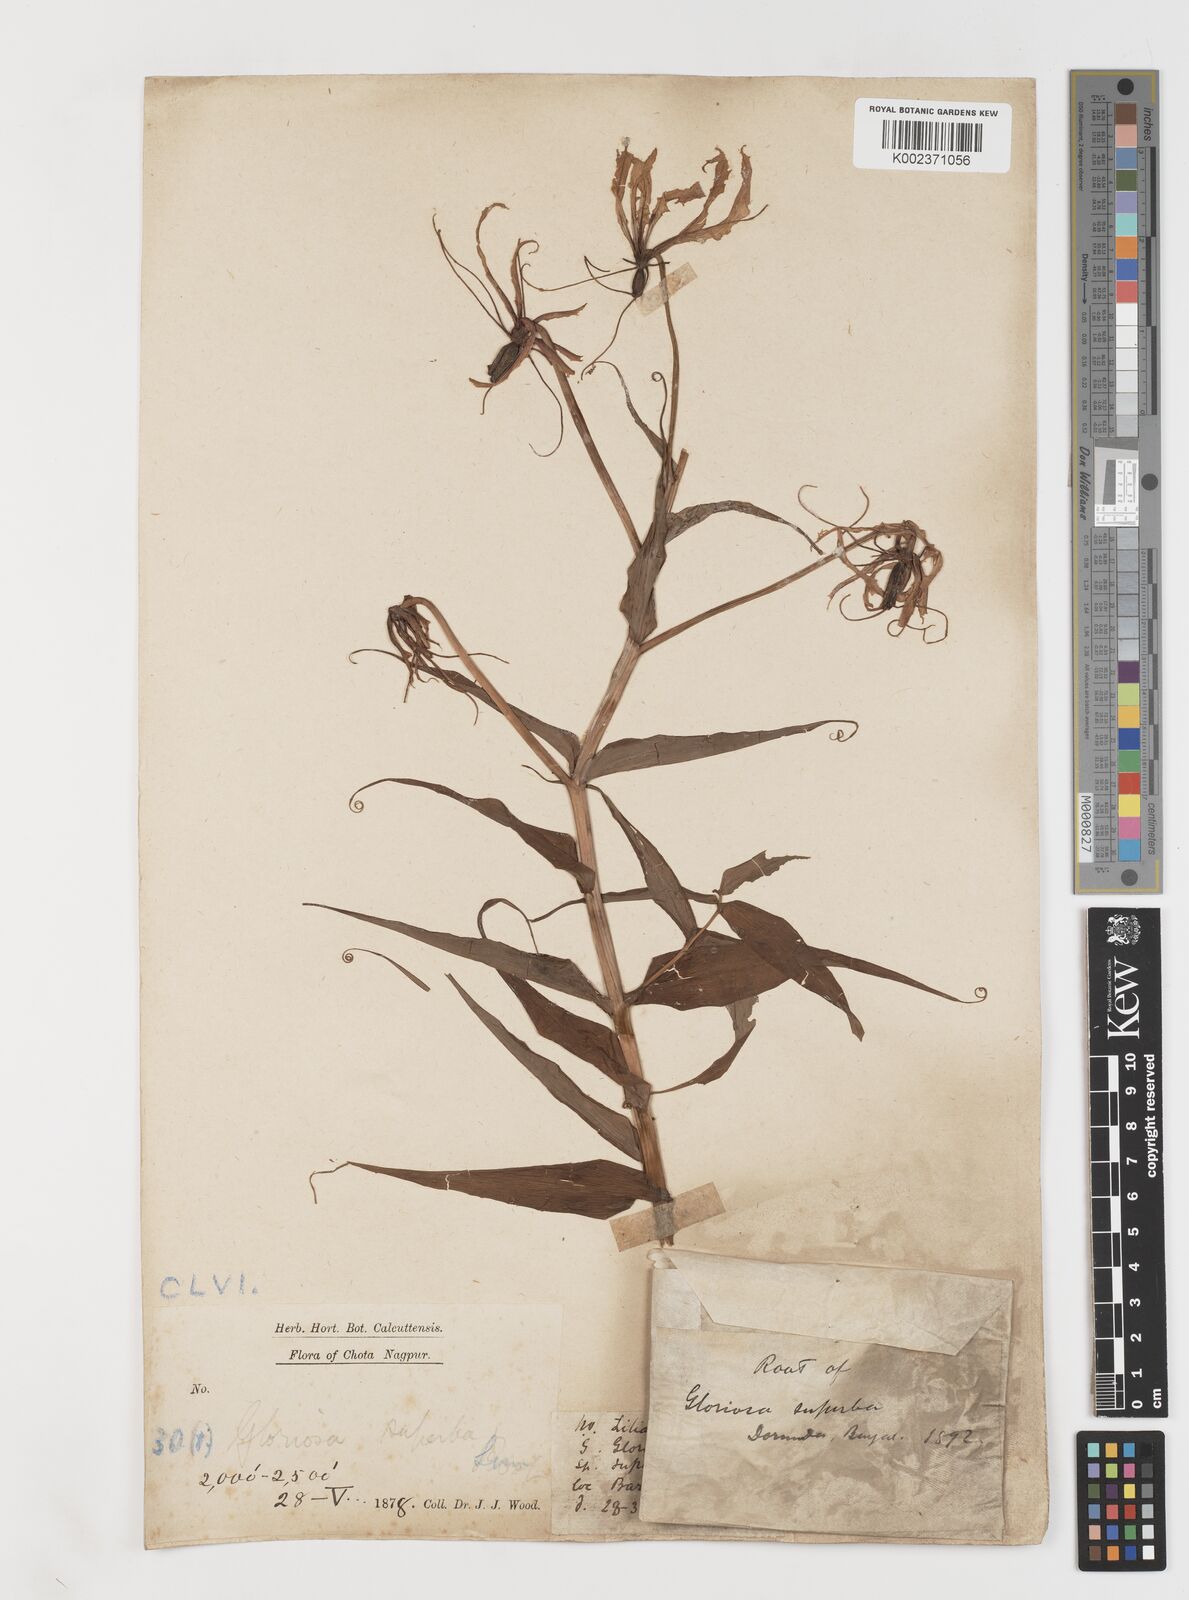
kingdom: Plantae
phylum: Tracheophyta
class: Liliopsida
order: Liliales
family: Colchicaceae
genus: Gloriosa
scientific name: Gloriosa
